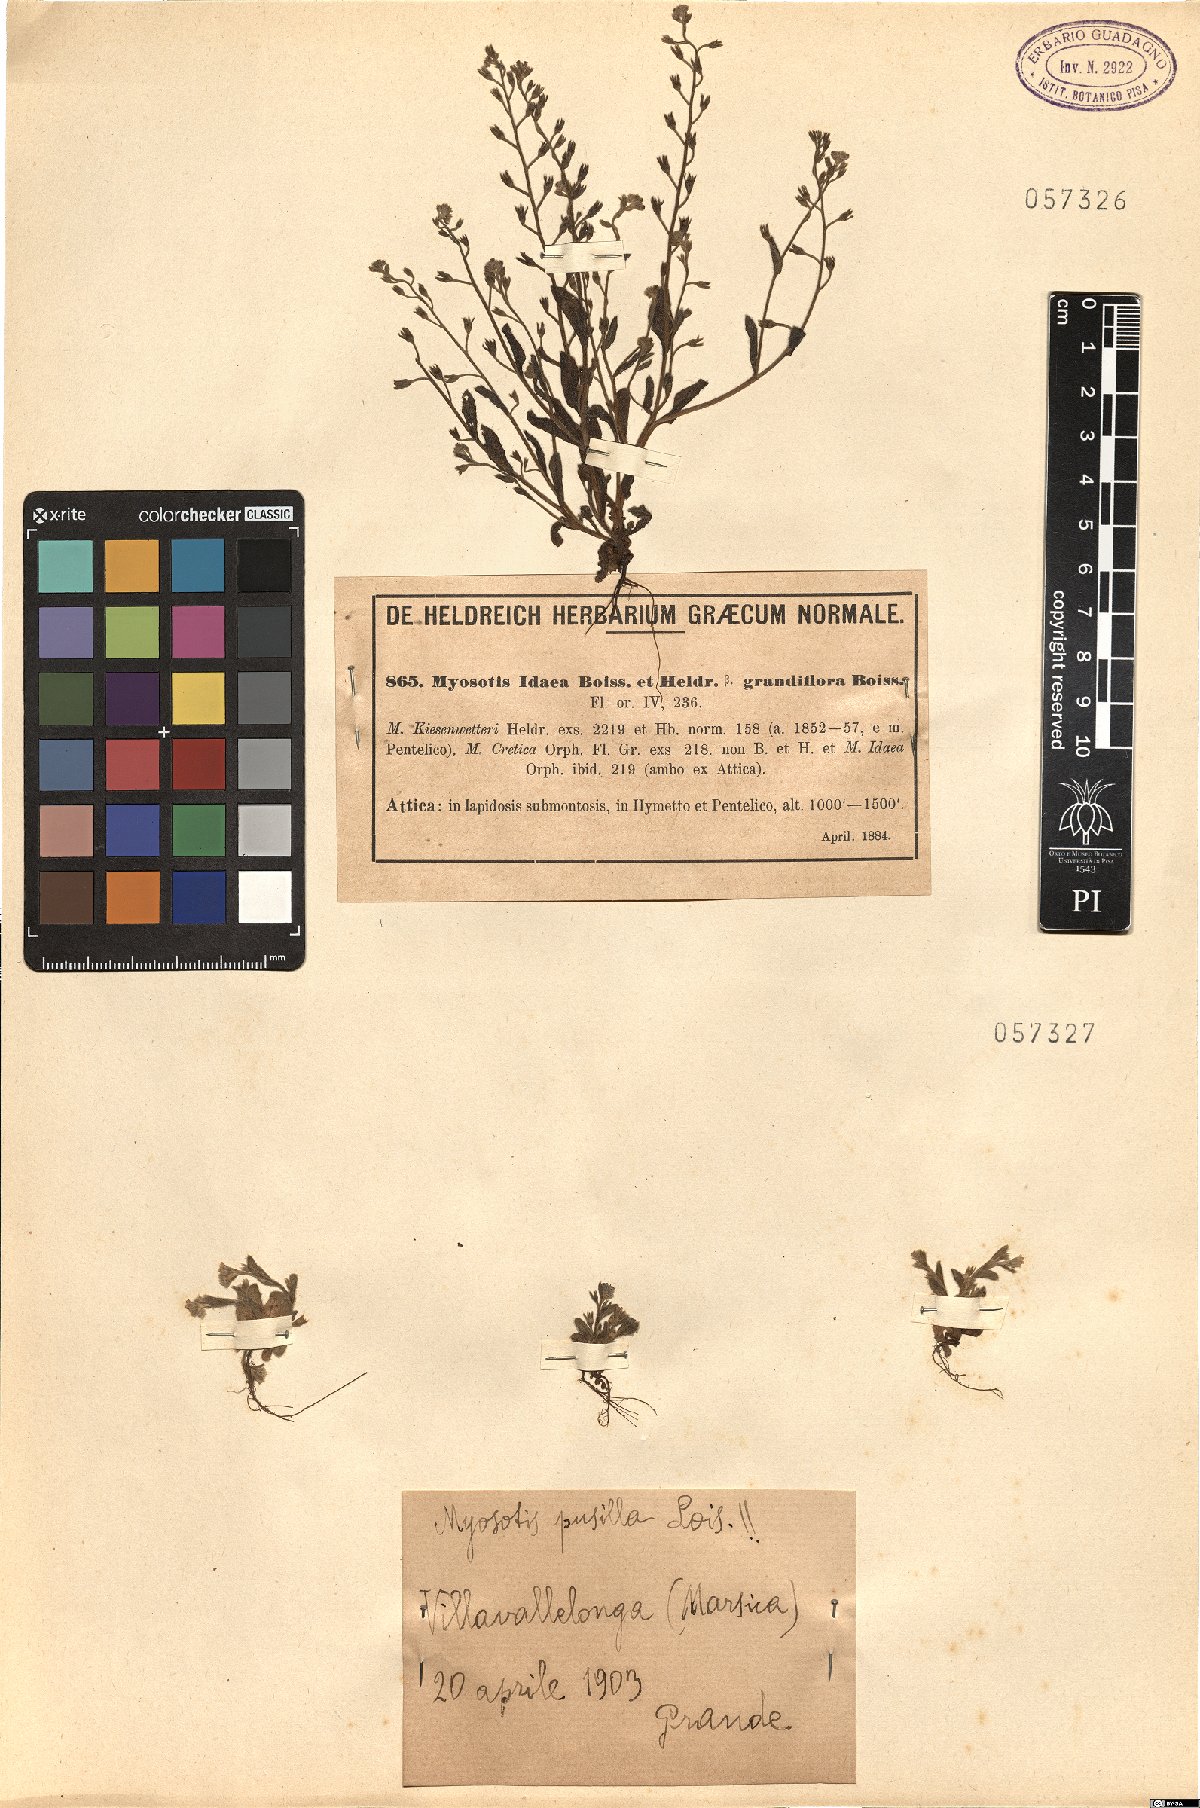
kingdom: Plantae
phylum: Tracheophyta
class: Magnoliopsida
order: Boraginales
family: Boraginaceae
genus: Myosotis
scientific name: Myosotis incrassata
